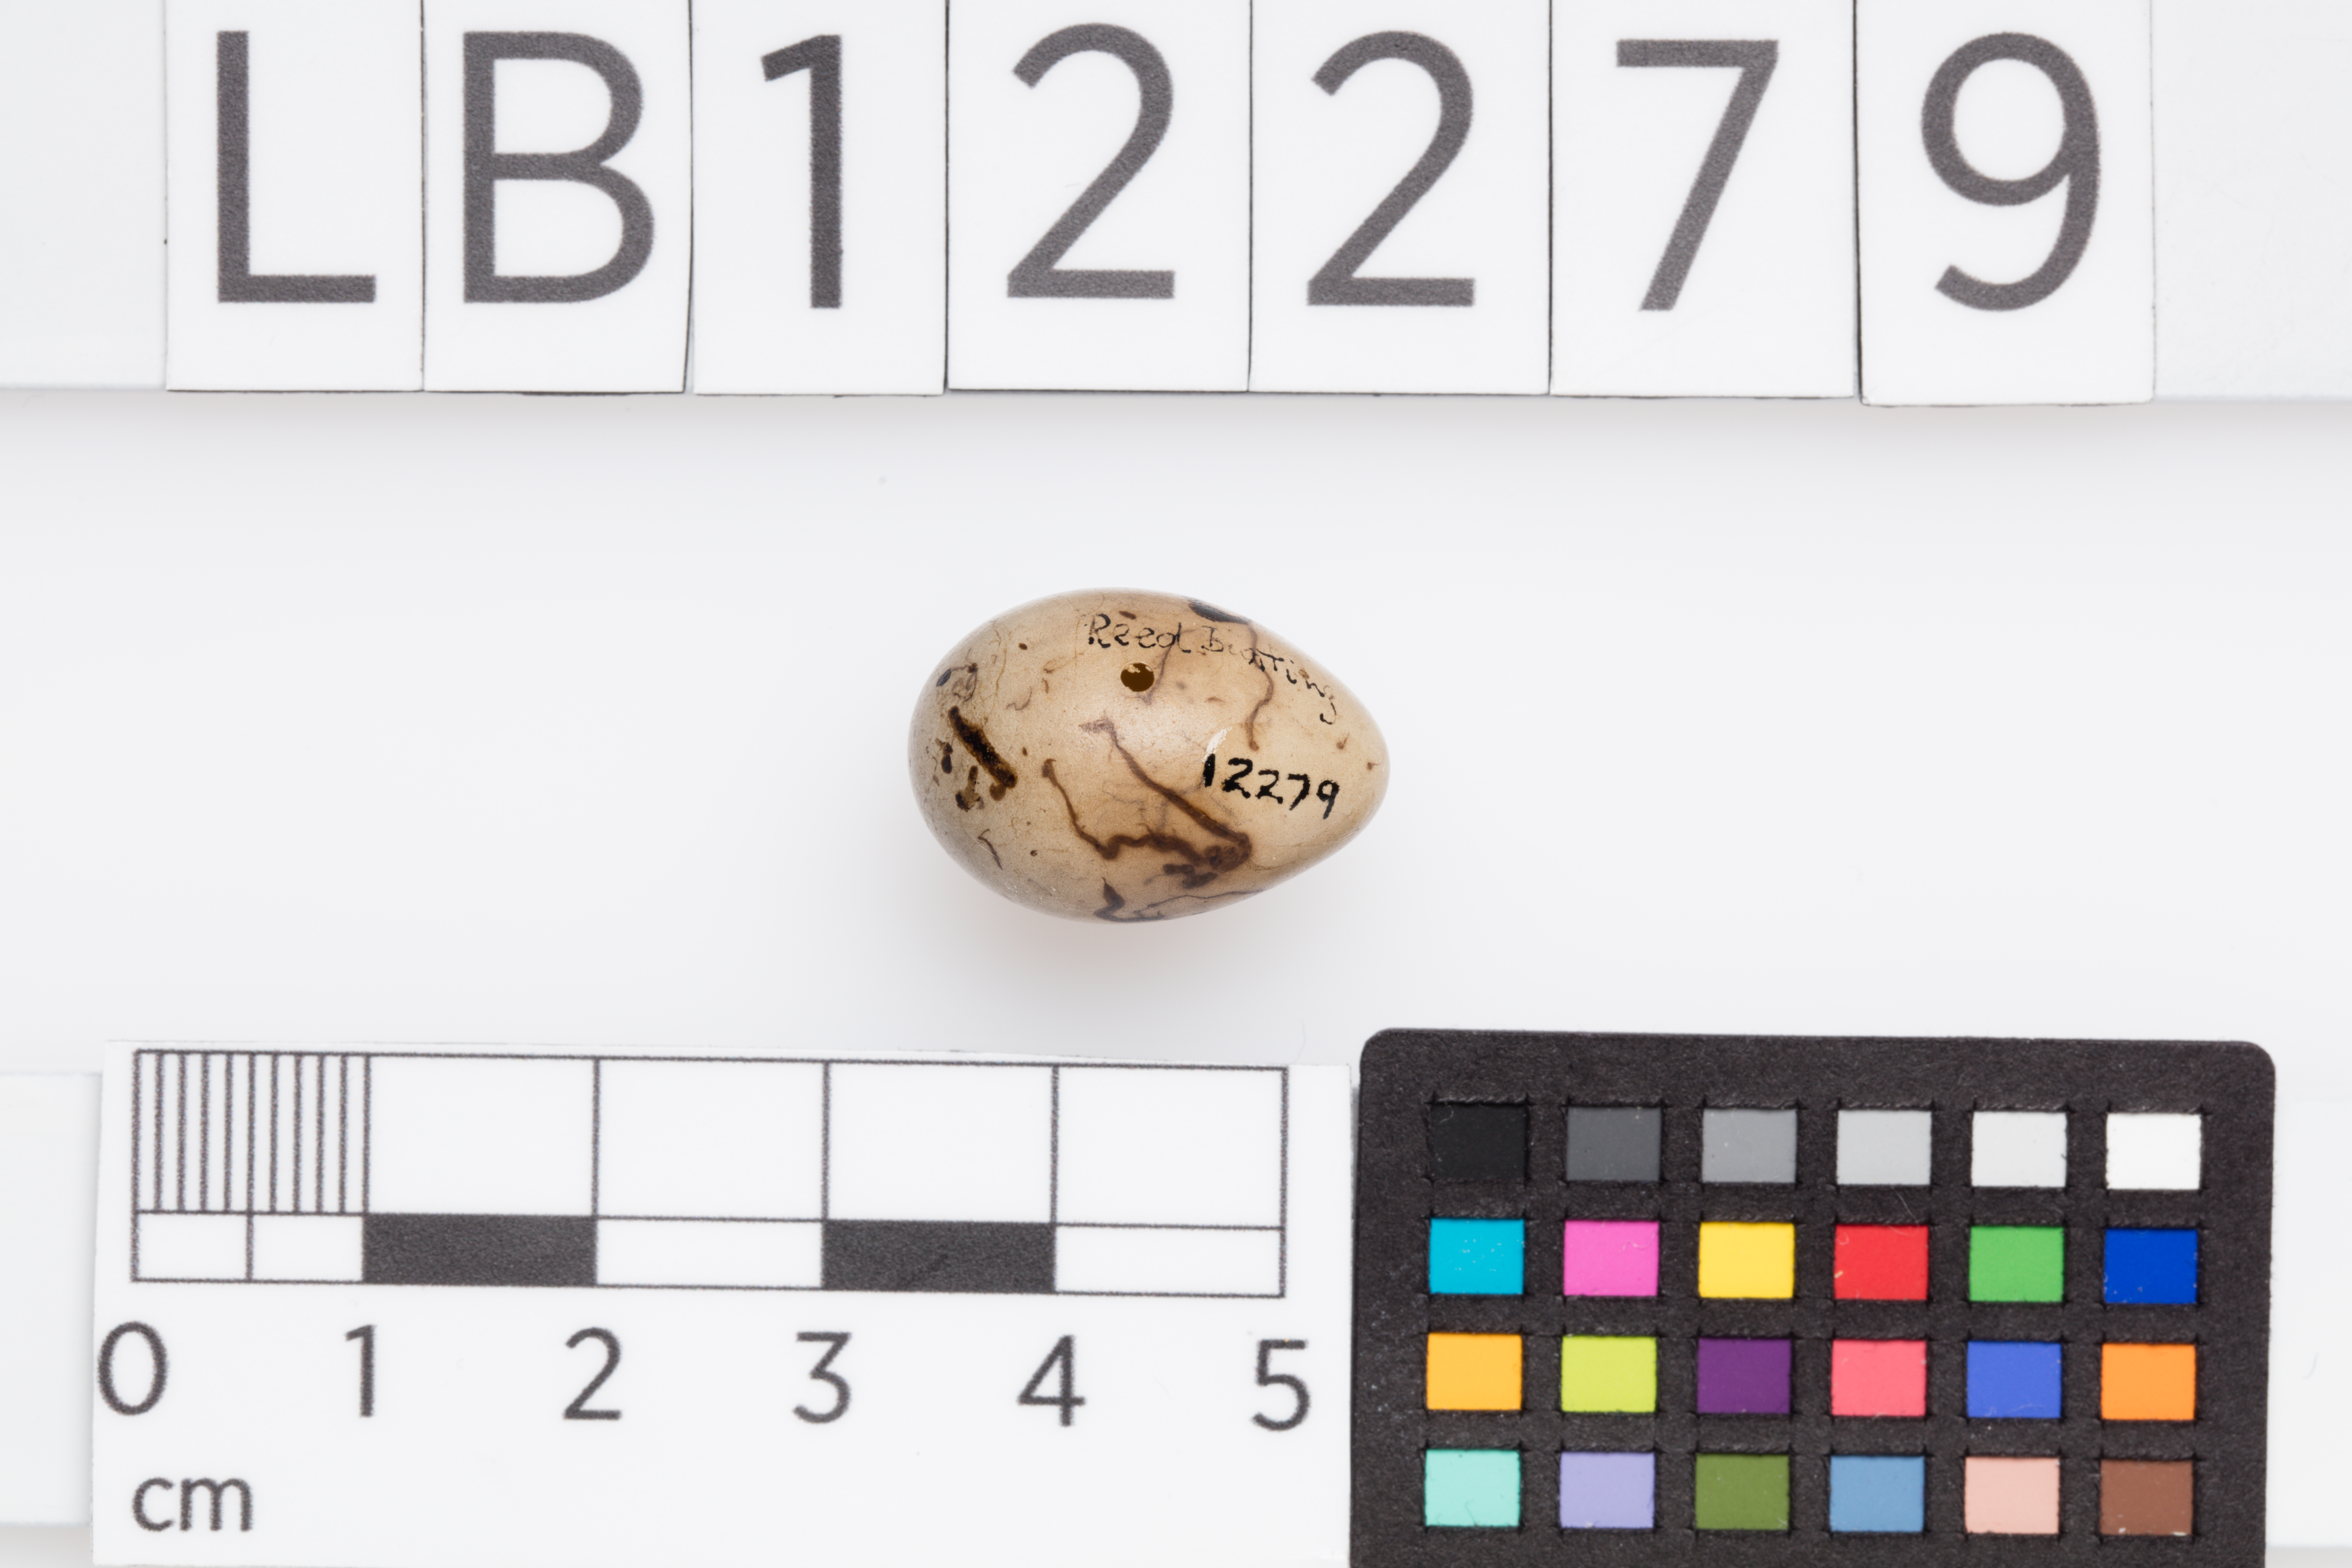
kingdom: Animalia
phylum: Chordata
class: Aves
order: Passeriformes
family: Emberizidae
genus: Emberiza
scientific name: Emberiza schoeniclus
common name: Reed bunting
